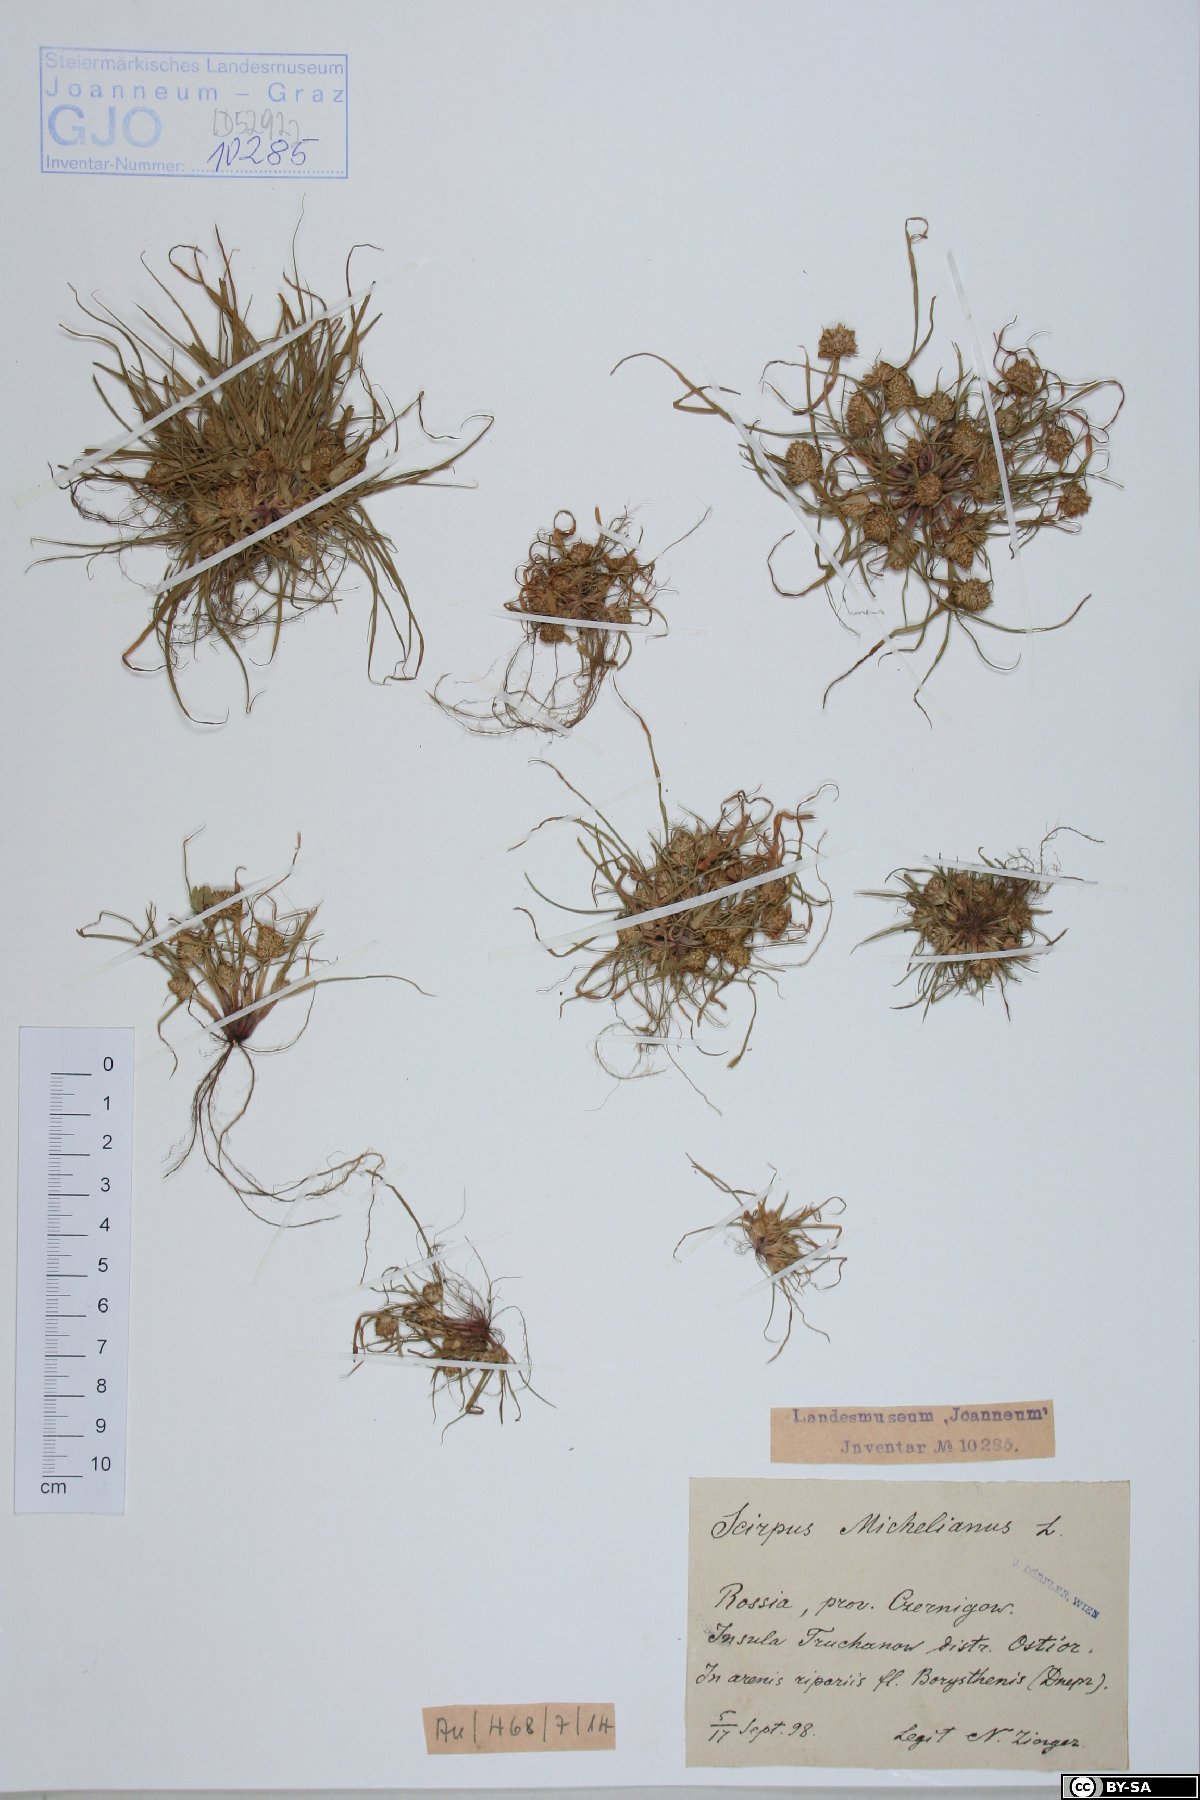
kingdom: Plantae
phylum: Tracheophyta
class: Liliopsida
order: Poales
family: Cyperaceae
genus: Cyperus
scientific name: Cyperus michelianus
